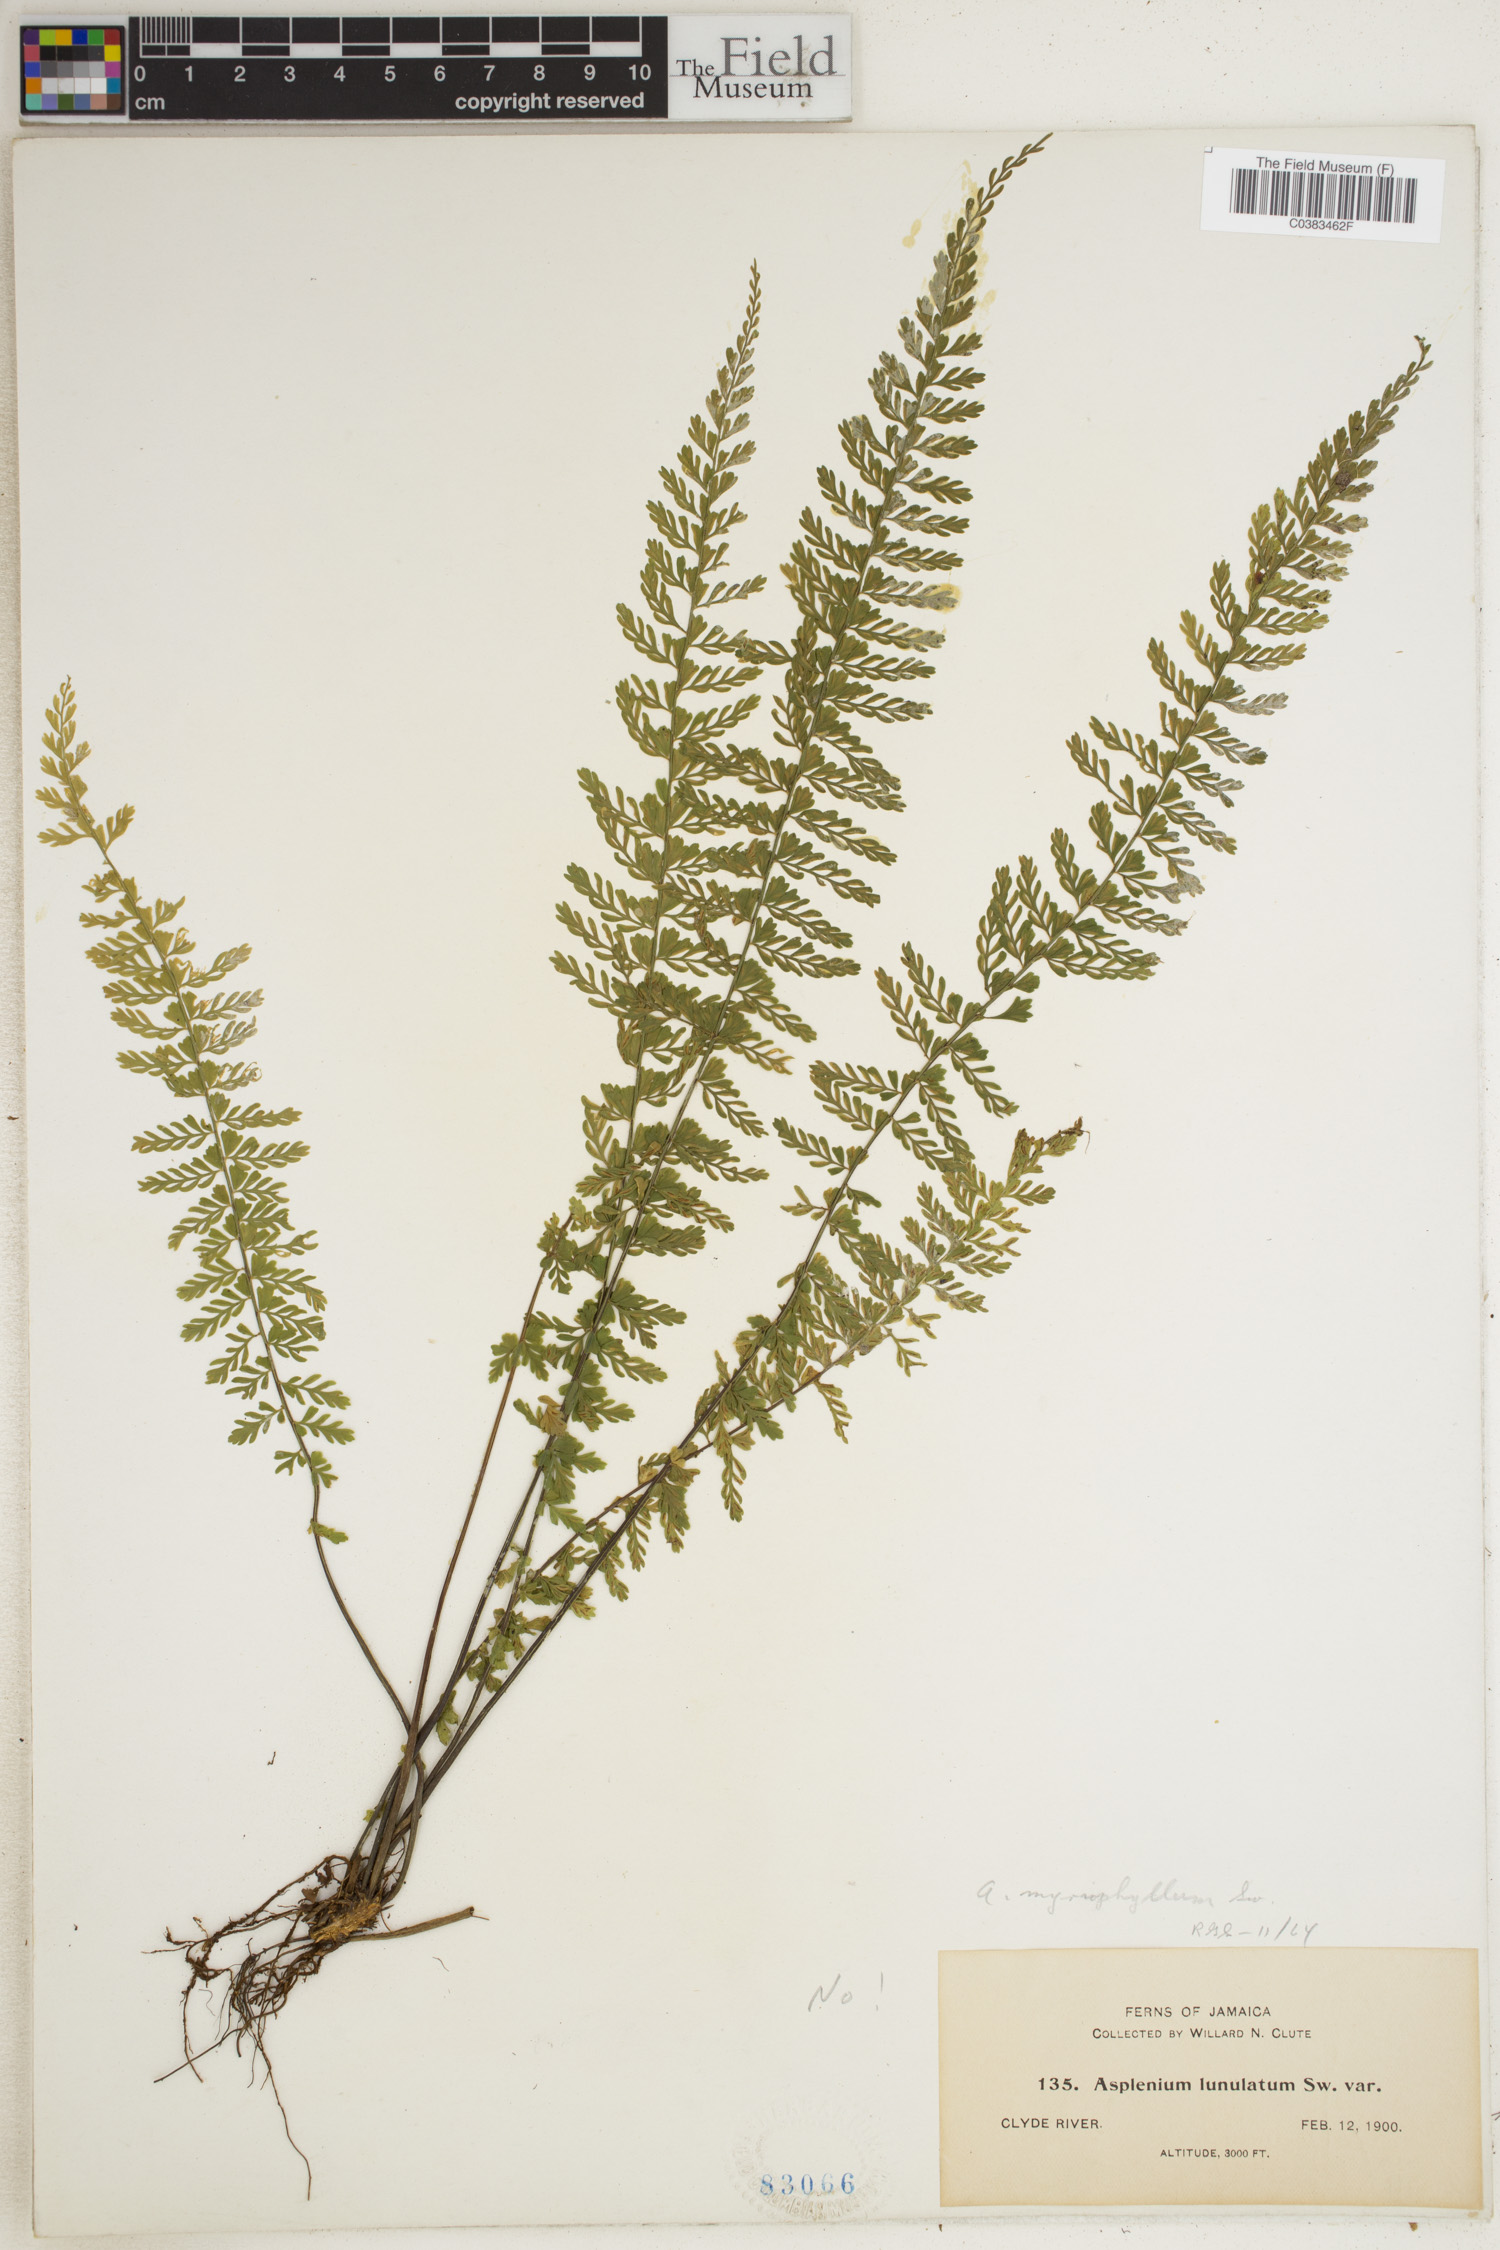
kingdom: Plantae
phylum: Tracheophyta
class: Polypodiopsida
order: Polypodiales
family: Aspleniaceae
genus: Asplenium
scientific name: Asplenium myriophyllum
